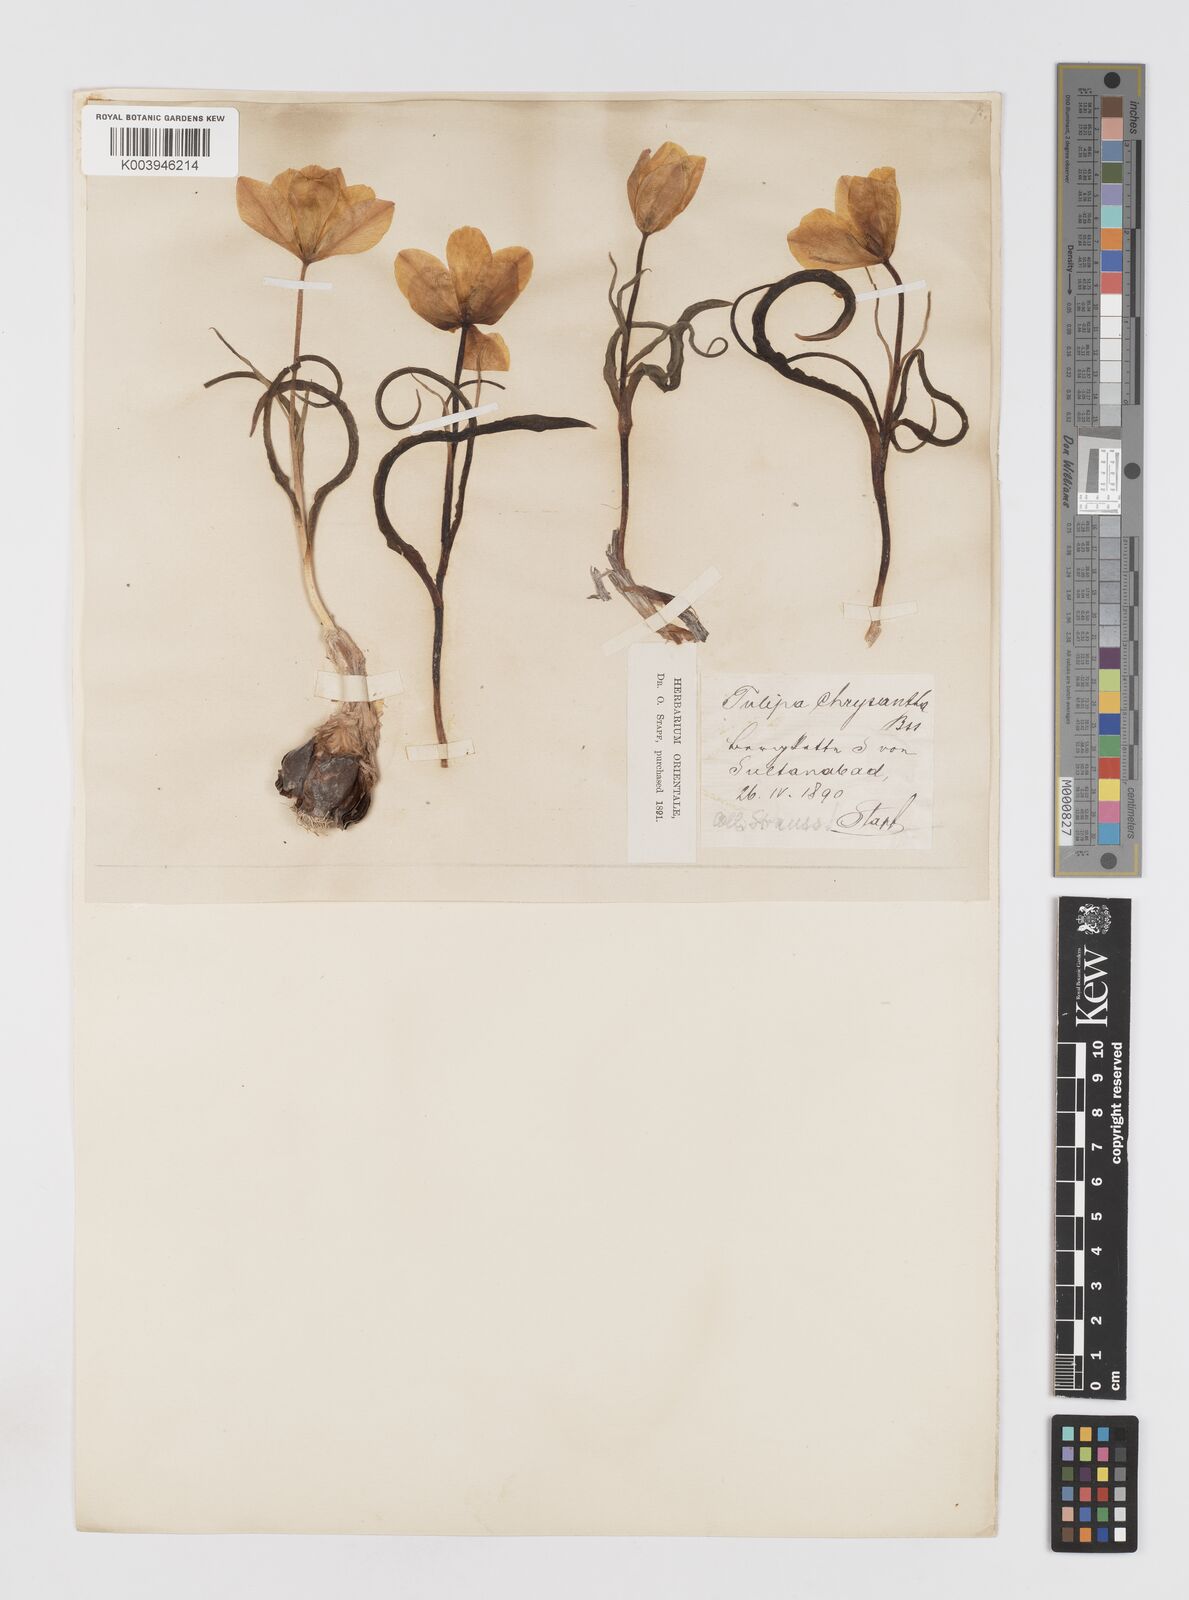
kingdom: Plantae
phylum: Tracheophyta
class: Liliopsida
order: Liliales
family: Liliaceae
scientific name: Liliaceae
